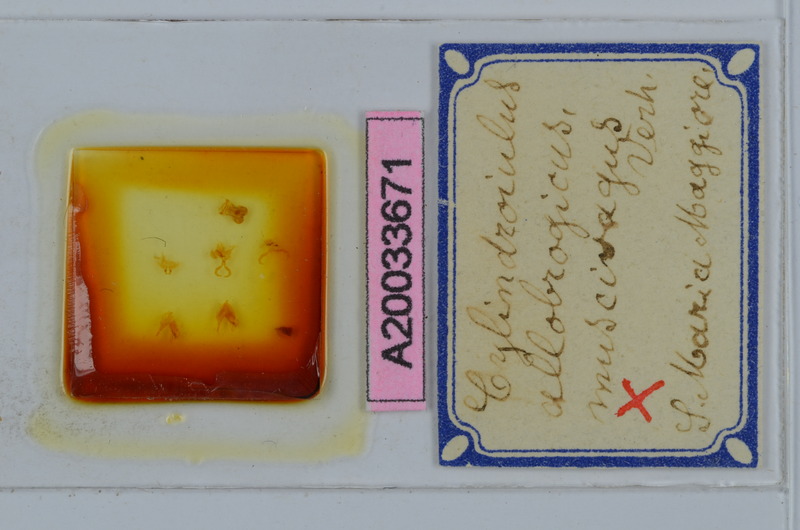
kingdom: Animalia
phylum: Arthropoda
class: Diplopoda
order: Julida
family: Julidae
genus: Cylindroiulus
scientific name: Cylindroiulus allobrogicus
